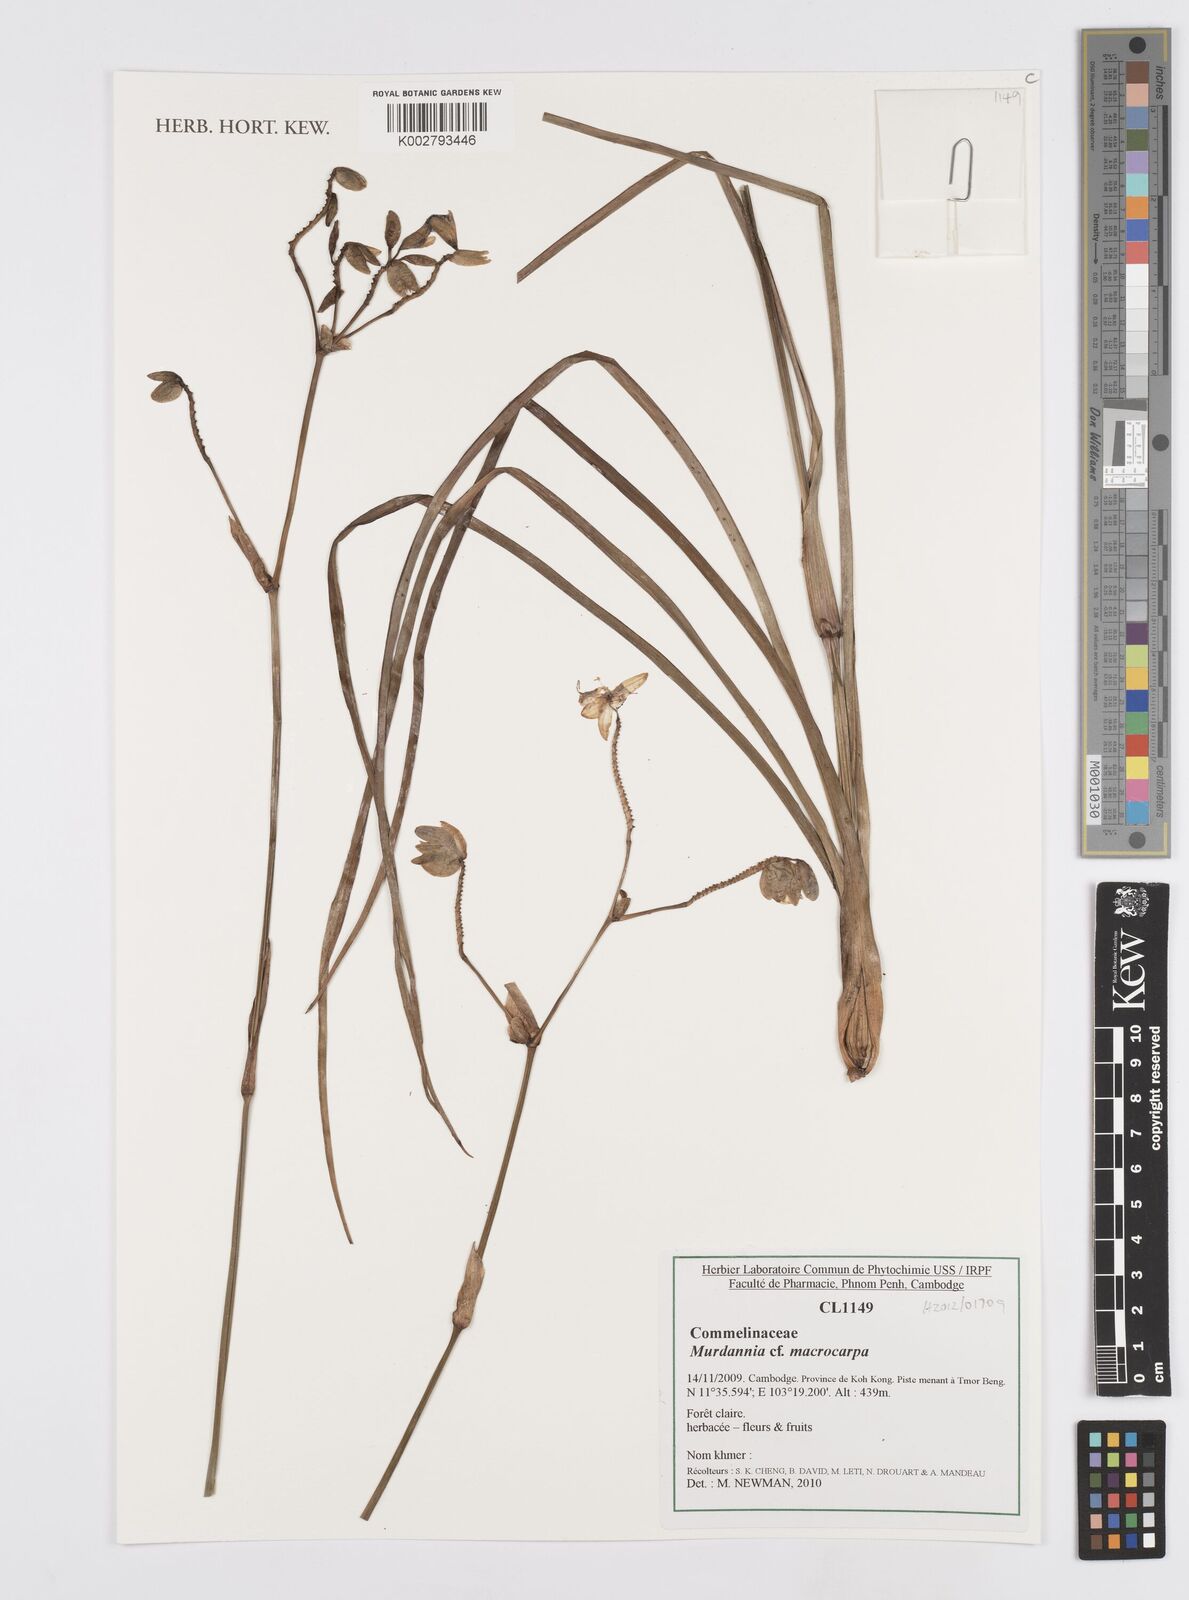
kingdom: Plantae
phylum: Tracheophyta
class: Liliopsida
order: Commelinales
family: Commelinaceae
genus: Murdannia
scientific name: Murdannia macrocarpa
